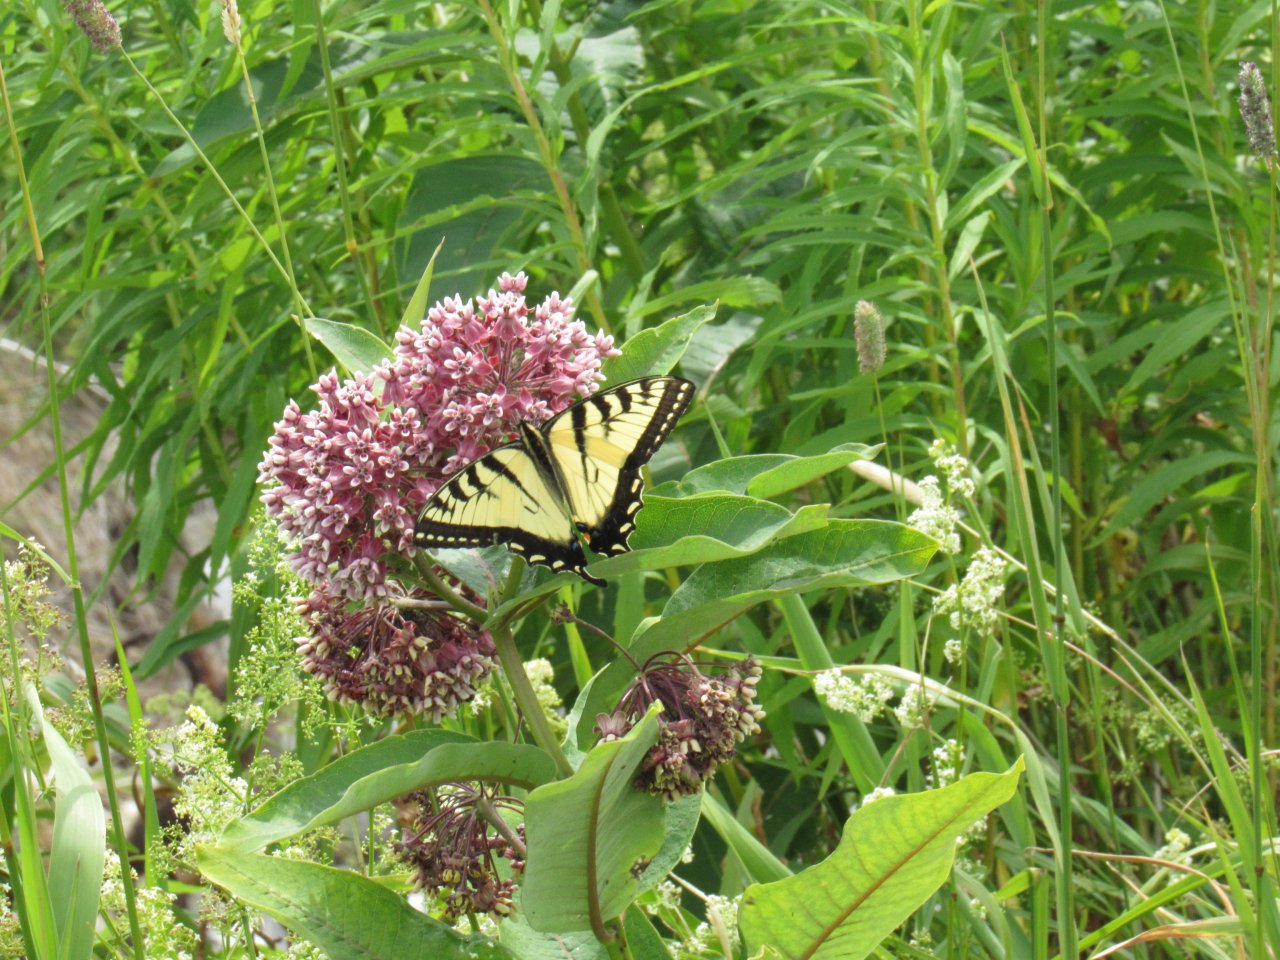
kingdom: Animalia
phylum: Arthropoda
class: Insecta
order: Lepidoptera
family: Papilionidae
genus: Pterourus
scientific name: Pterourus
